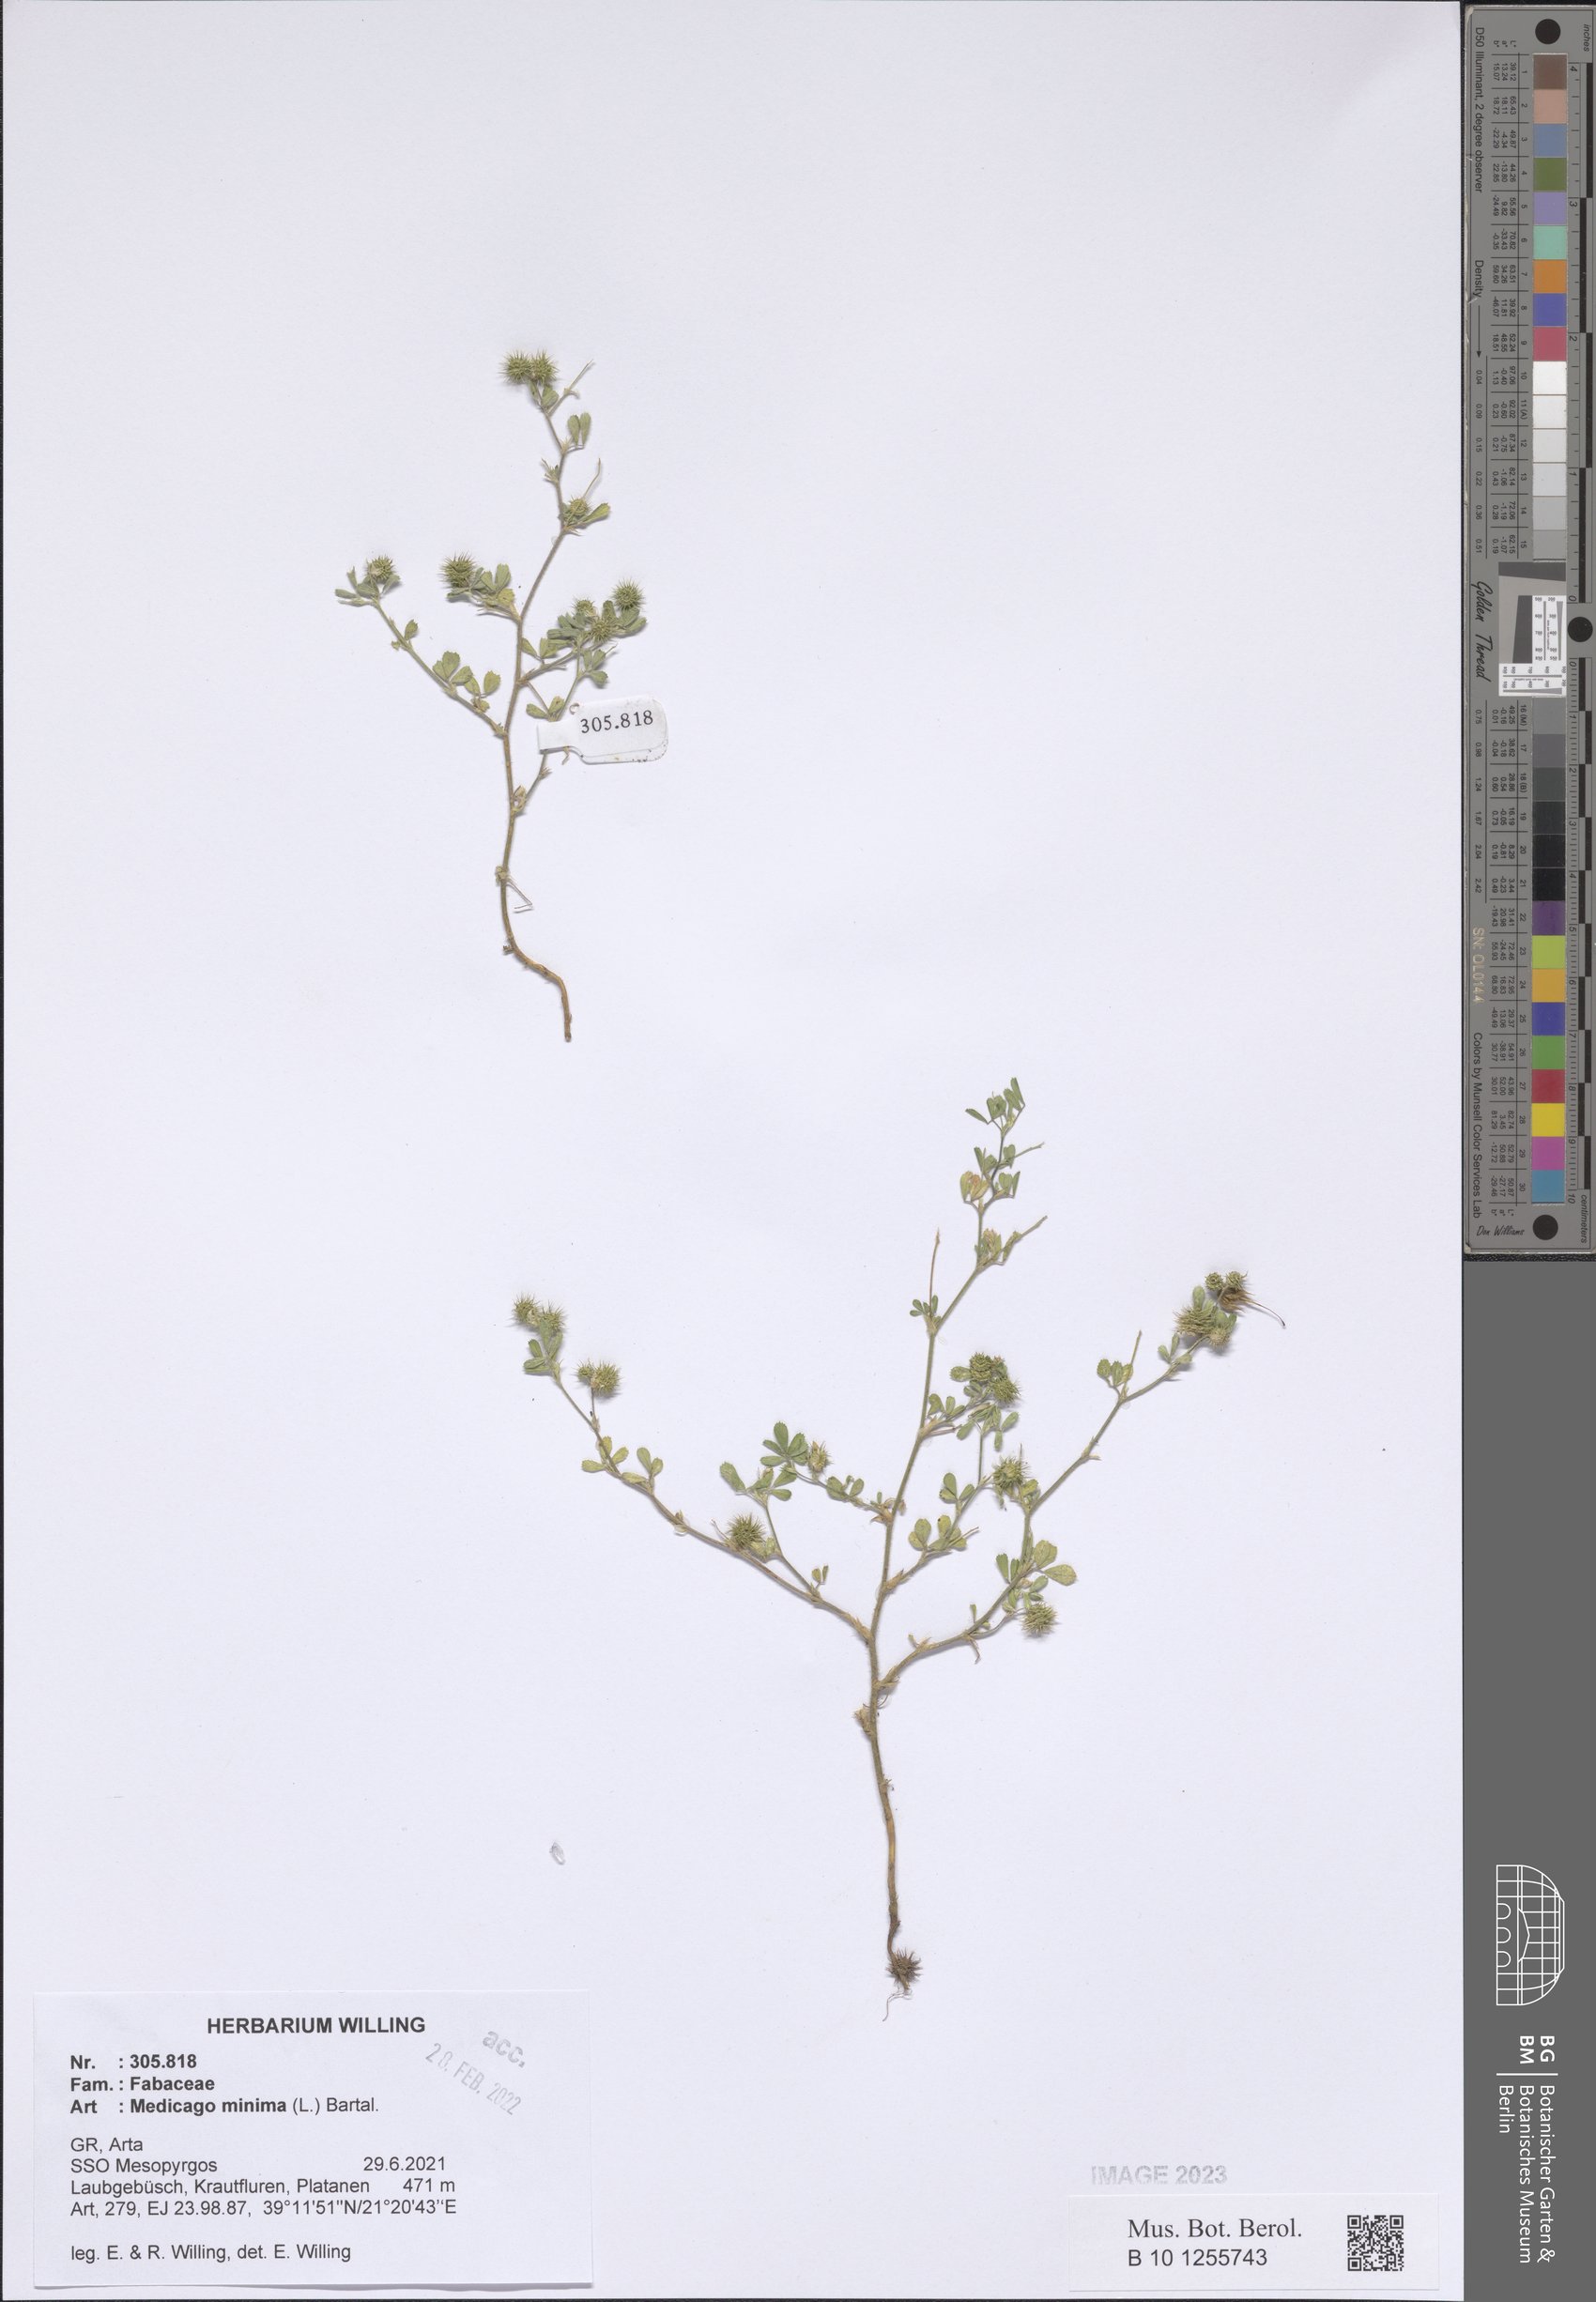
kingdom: Plantae
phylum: Tracheophyta
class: Magnoliopsida
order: Fabales
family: Fabaceae
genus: Medicago
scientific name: Medicago minima
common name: Little bur-clover
